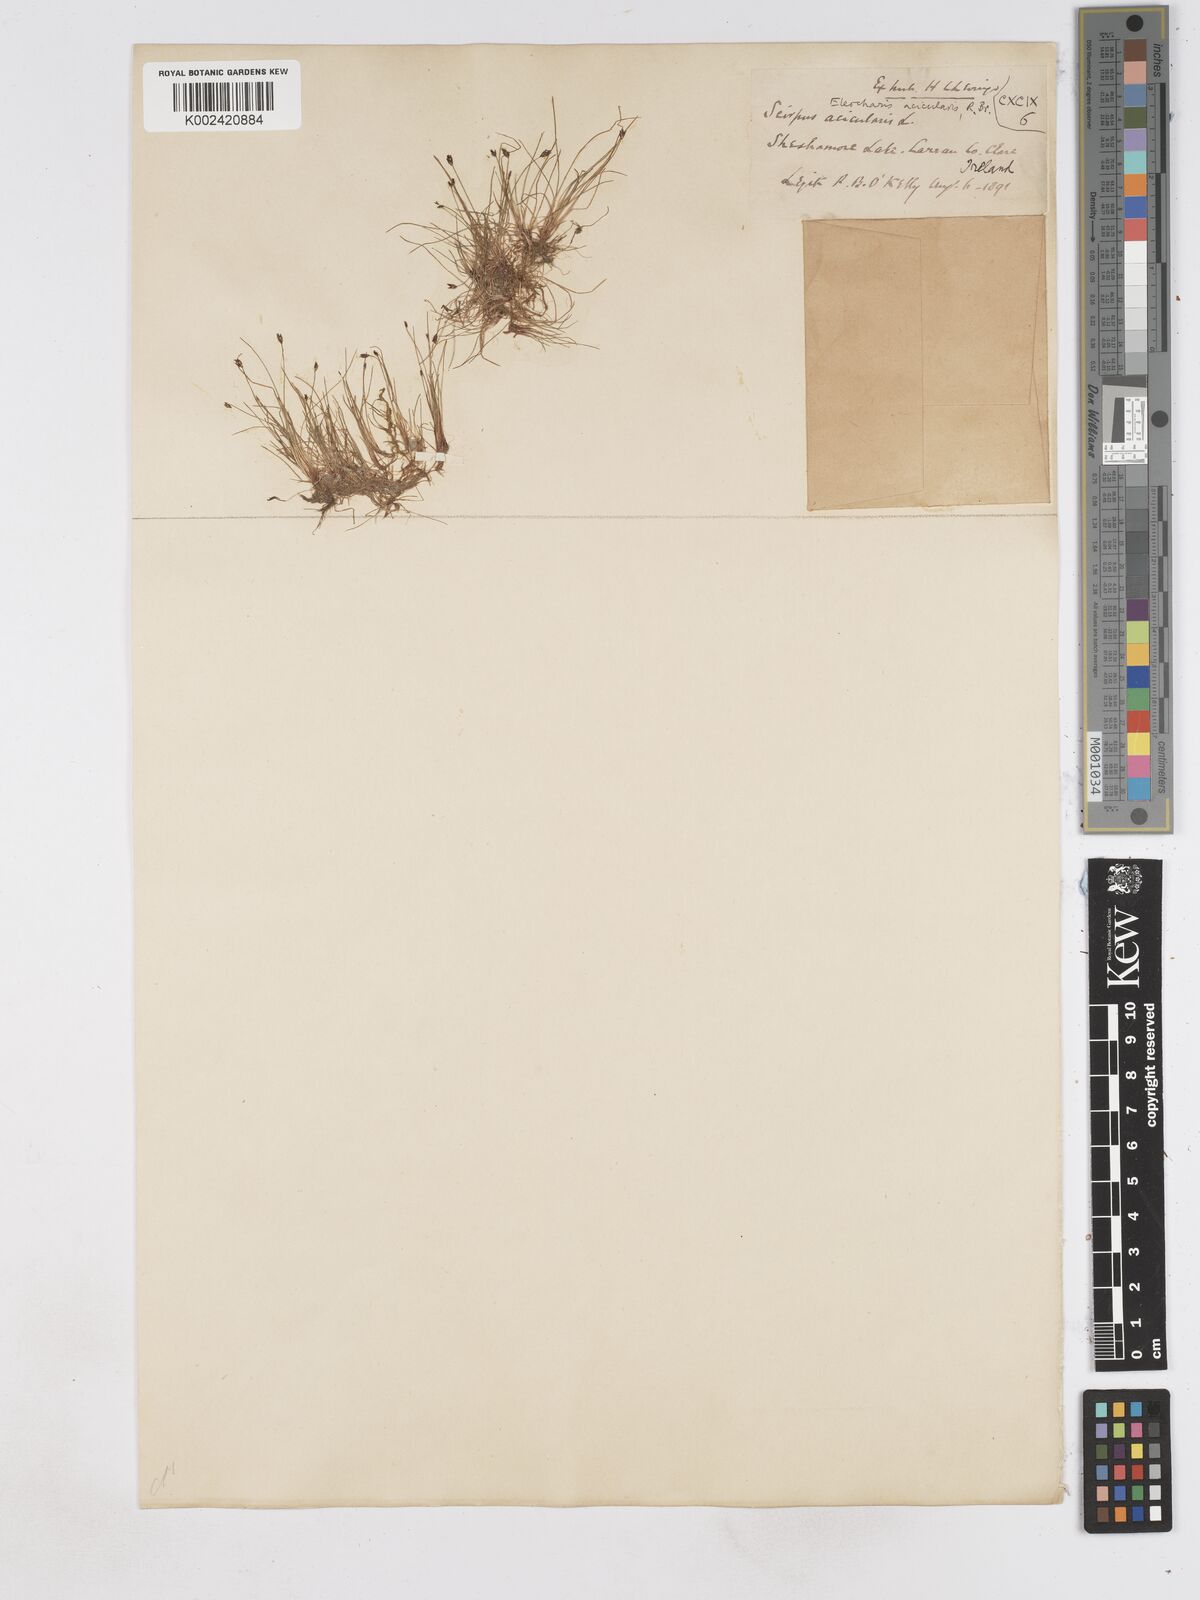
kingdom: Plantae
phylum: Tracheophyta
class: Liliopsida
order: Poales
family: Cyperaceae
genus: Eleocharis
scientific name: Eleocharis acicularis
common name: Needle spike-rush
